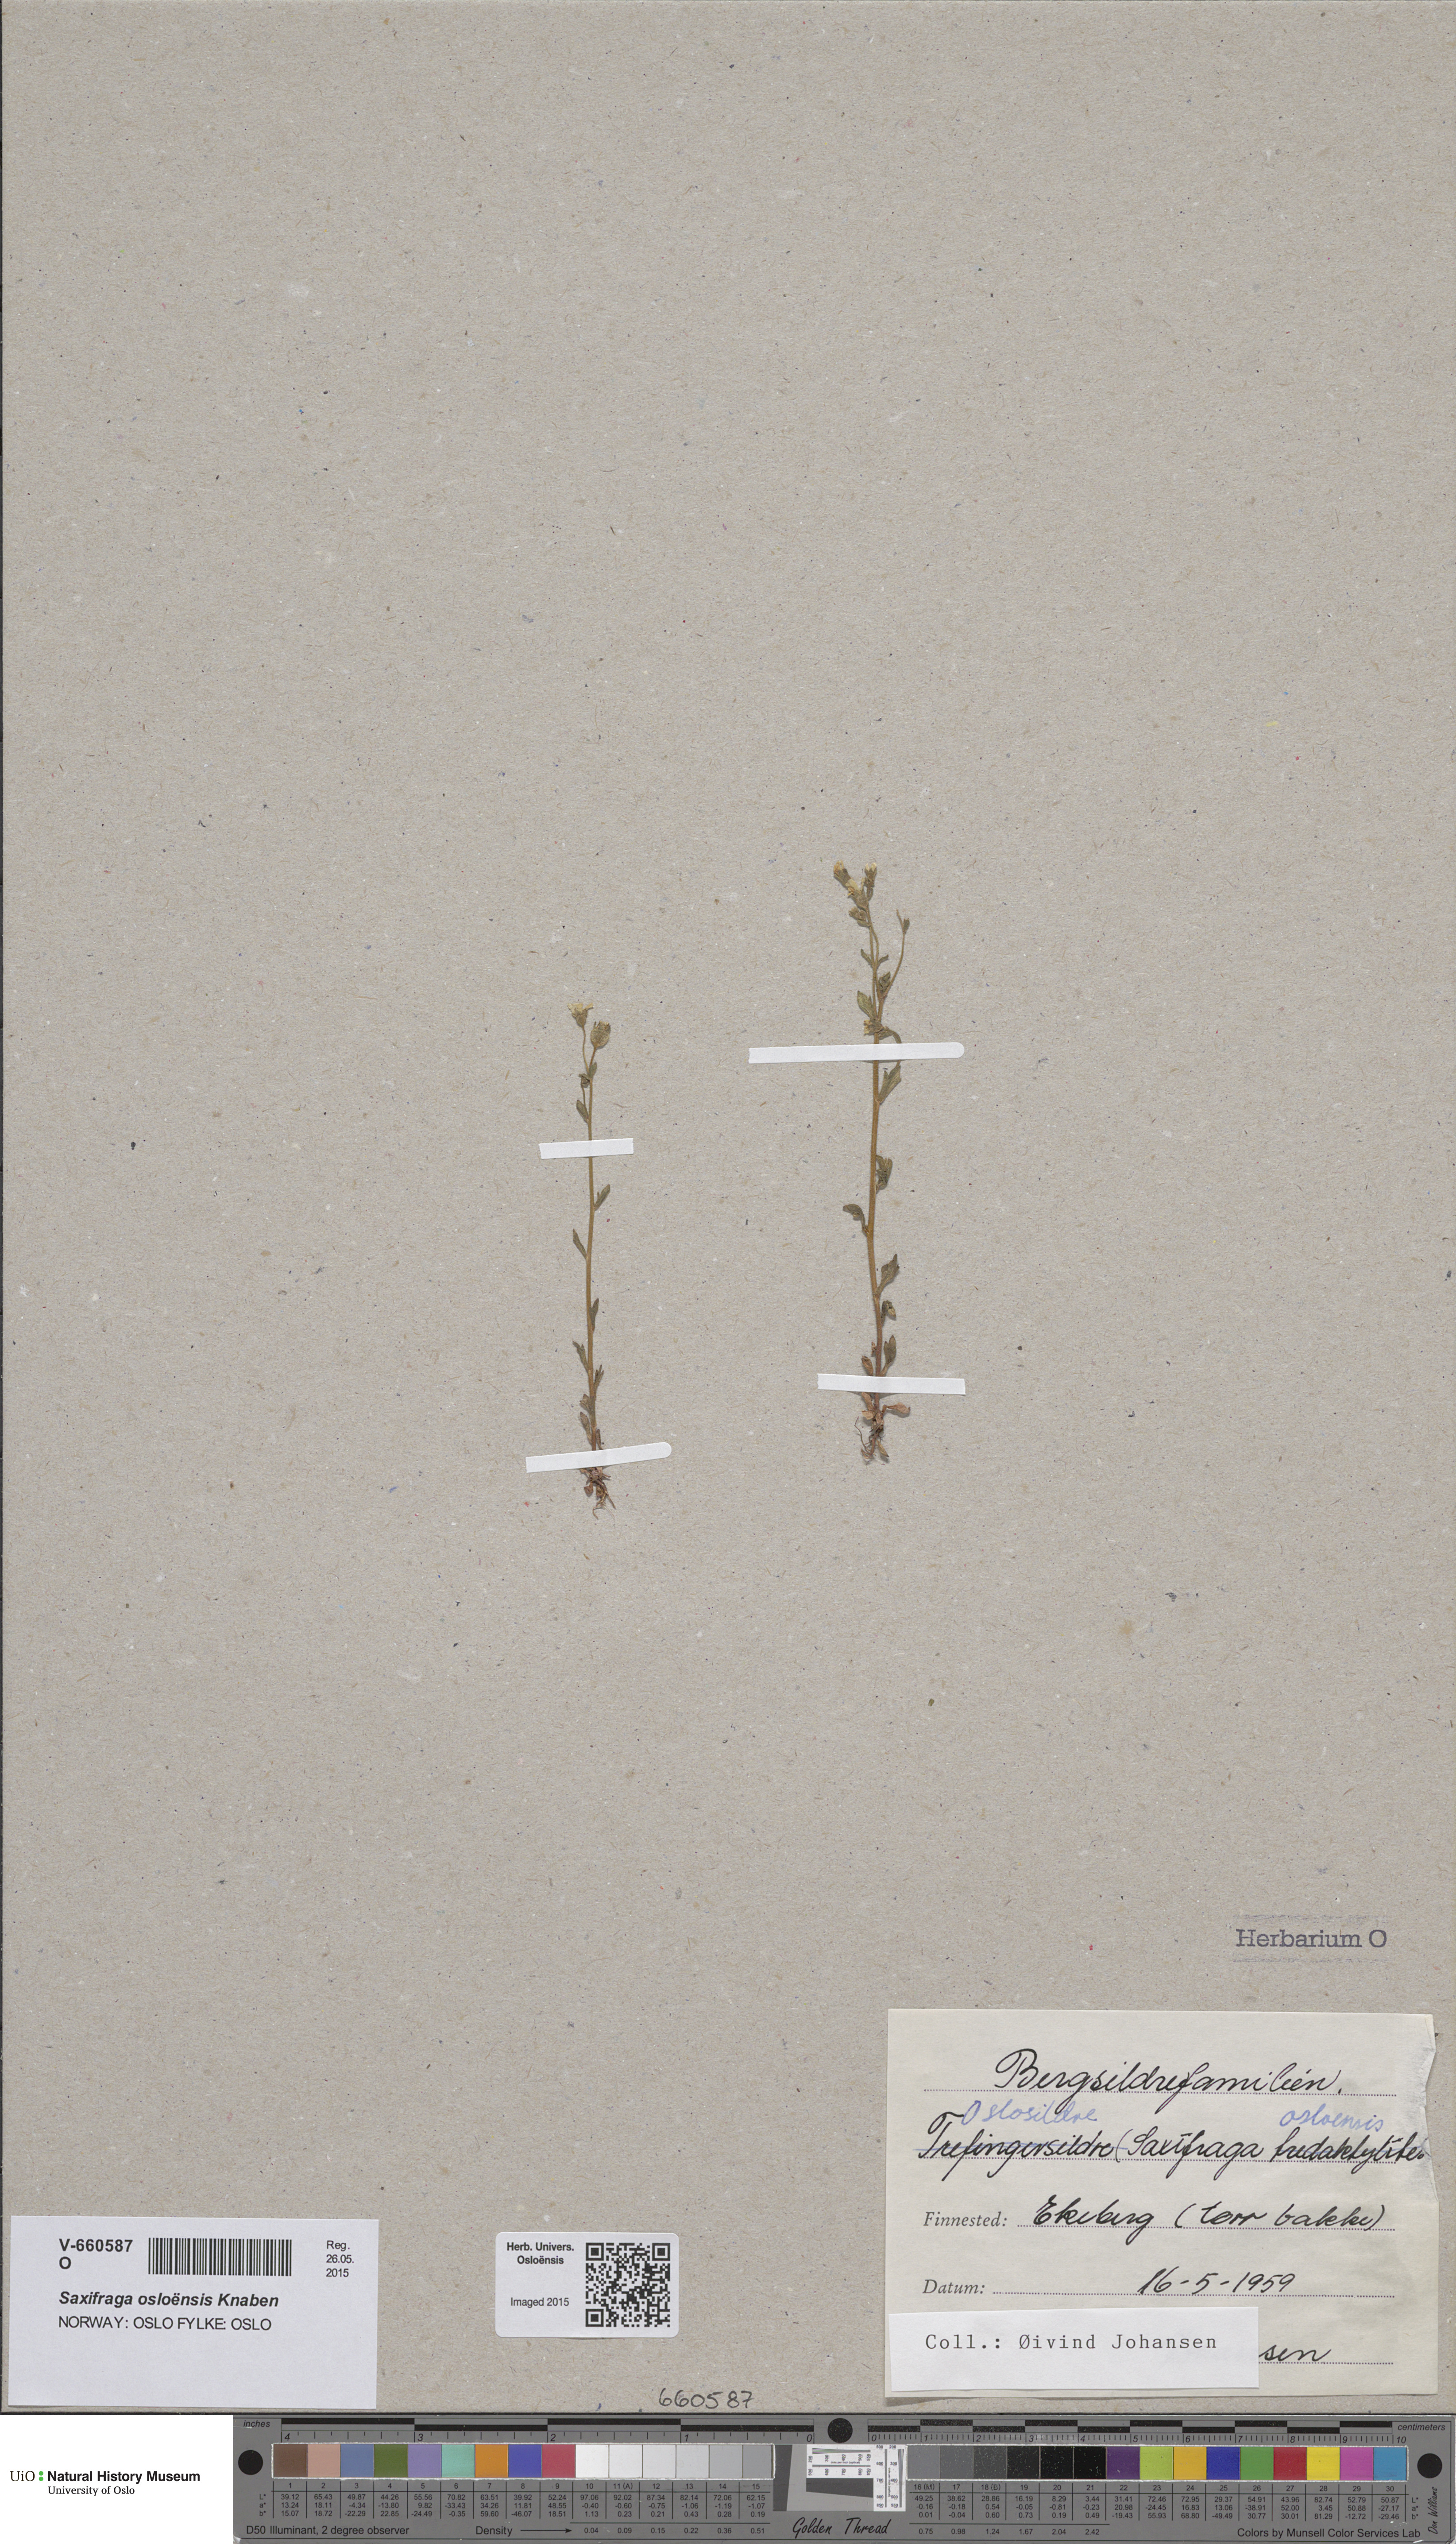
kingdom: Plantae
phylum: Tracheophyta
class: Magnoliopsida
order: Saxifragales
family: Saxifragaceae
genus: Saxifraga
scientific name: Saxifraga osloensis
